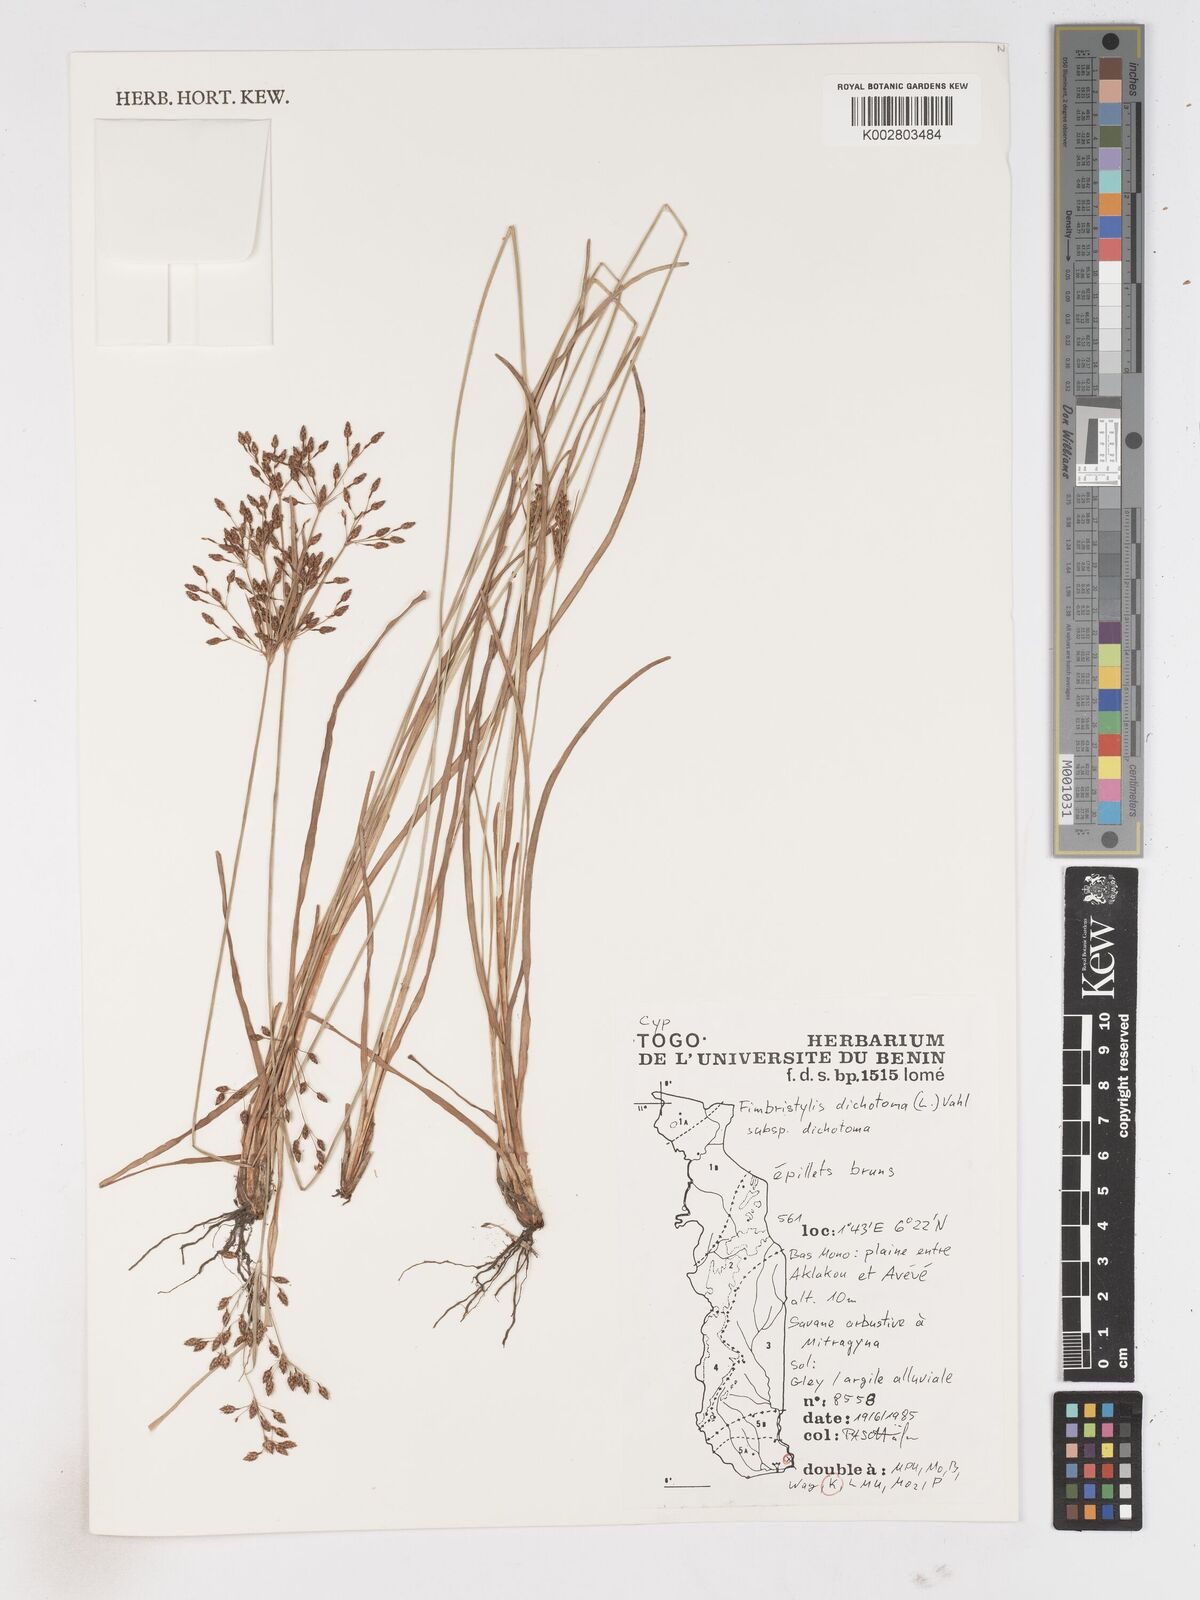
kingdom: Plantae
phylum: Tracheophyta
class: Liliopsida
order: Poales
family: Cyperaceae
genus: Fimbristylis
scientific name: Fimbristylis dichotoma
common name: Forked fimbry
